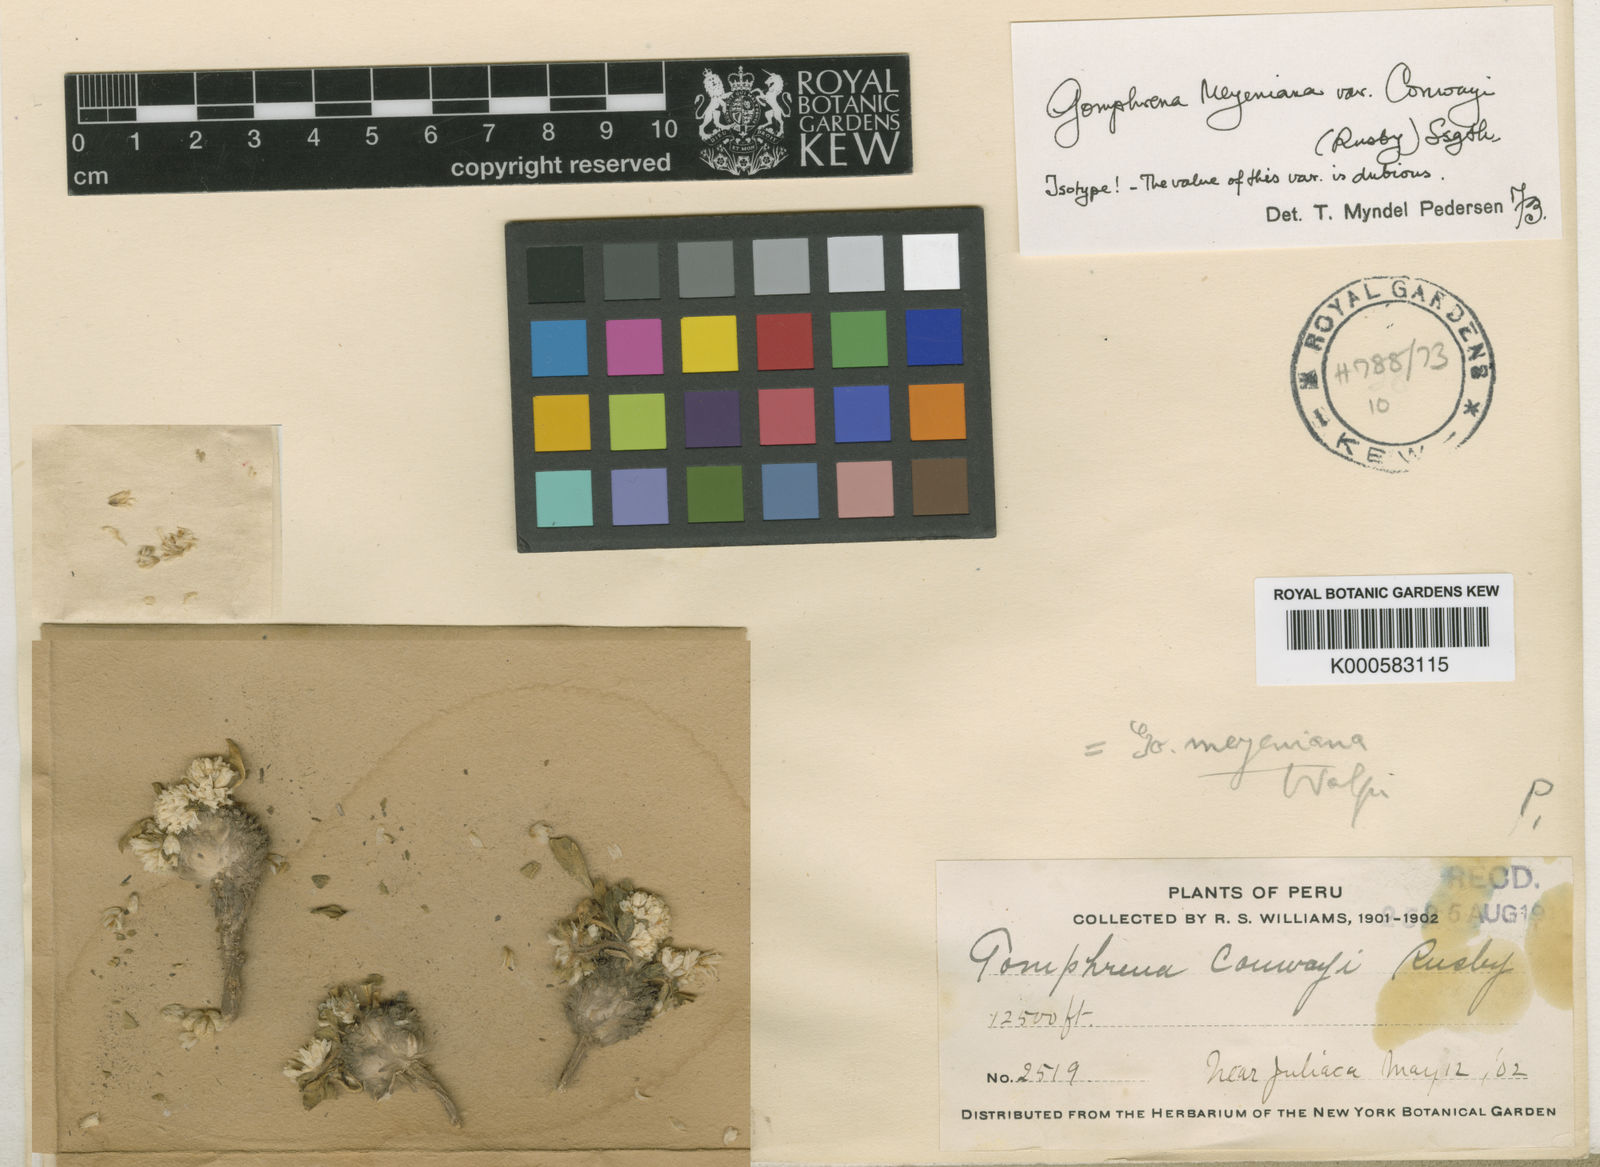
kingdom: Plantae
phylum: Tracheophyta
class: Magnoliopsida
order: Caryophyllales
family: Amaranthaceae
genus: Gomphrena
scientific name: Gomphrena meyeniana
